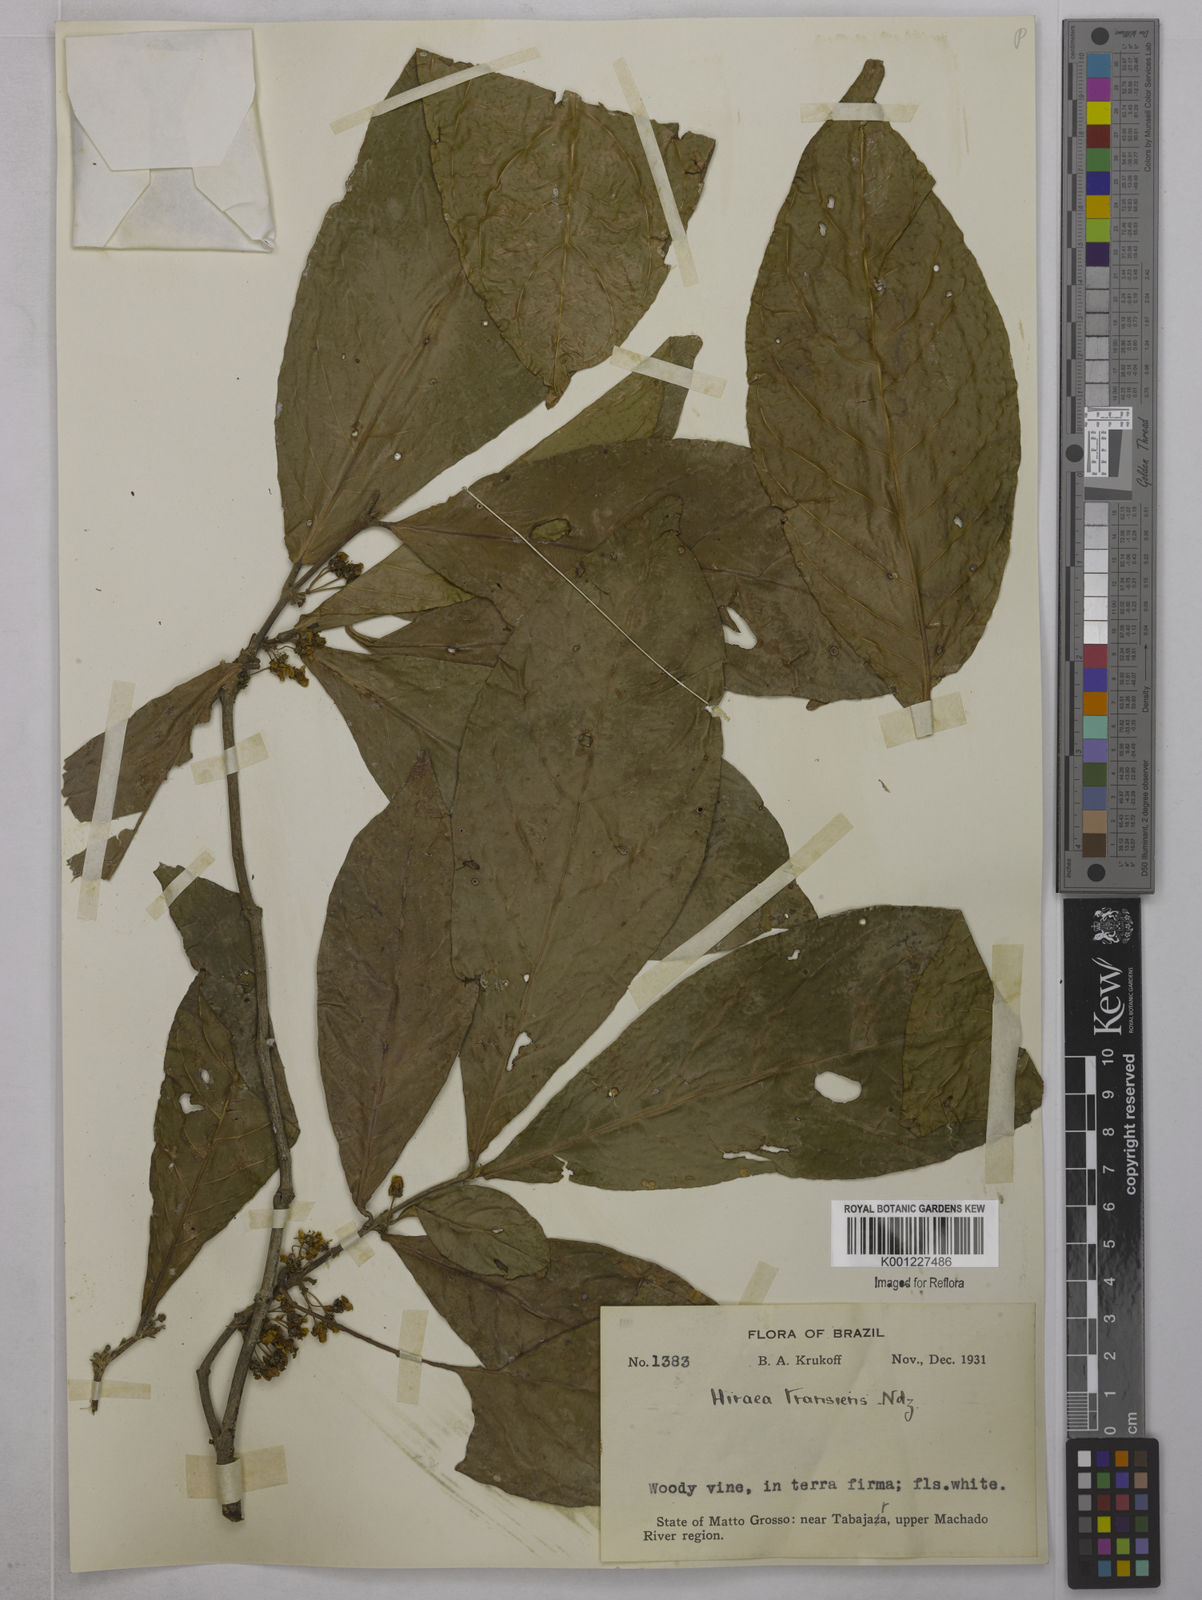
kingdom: Plantae
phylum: Tracheophyta
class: Magnoliopsida
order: Malpighiales
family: Malpighiaceae
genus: Hiraea
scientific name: Hiraea transiens
